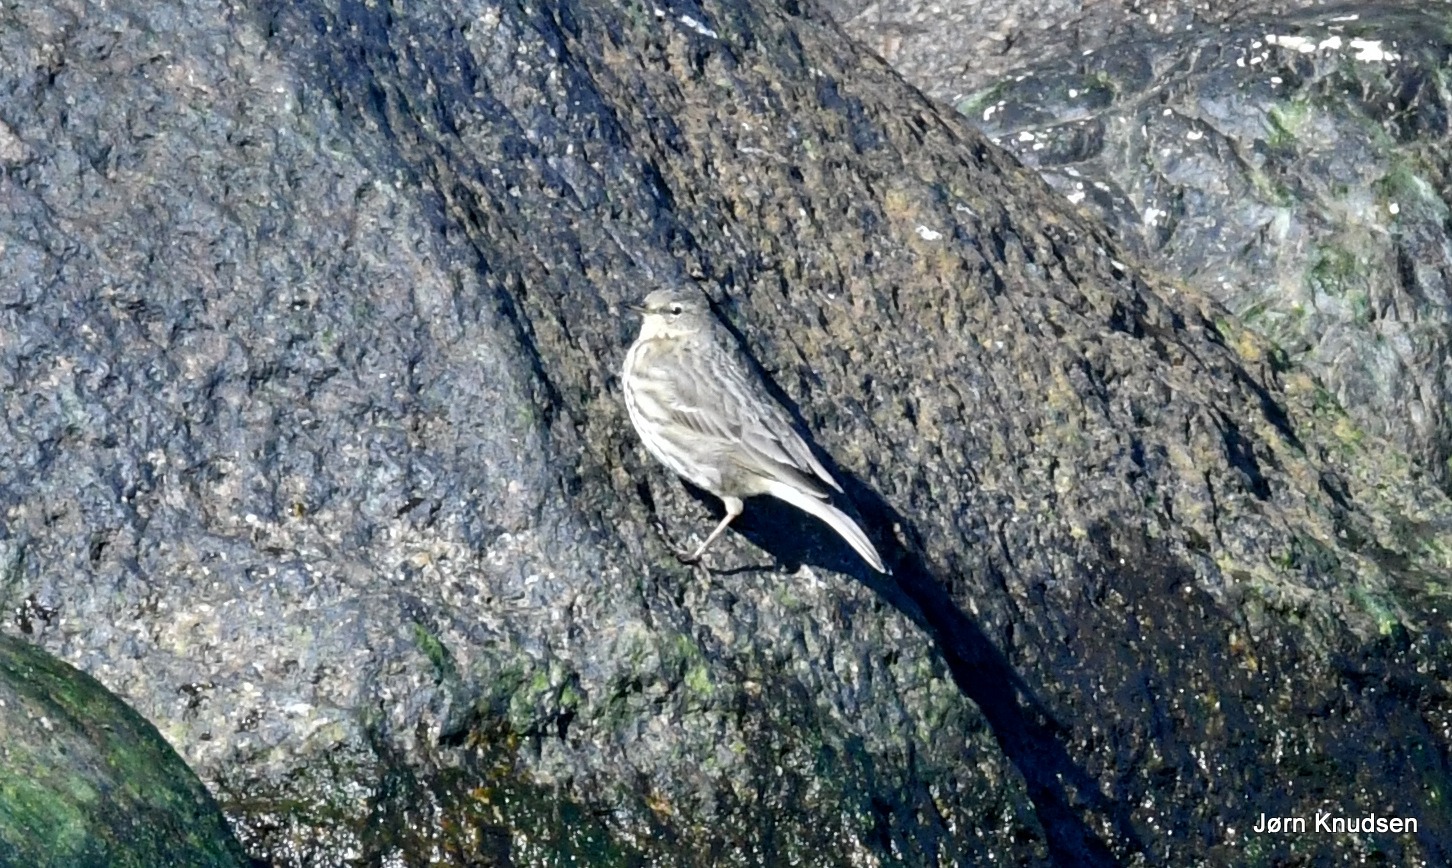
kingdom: Animalia
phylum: Chordata
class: Aves
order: Passeriformes
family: Motacillidae
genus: Anthus
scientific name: Anthus petrosus
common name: Skærpiber
